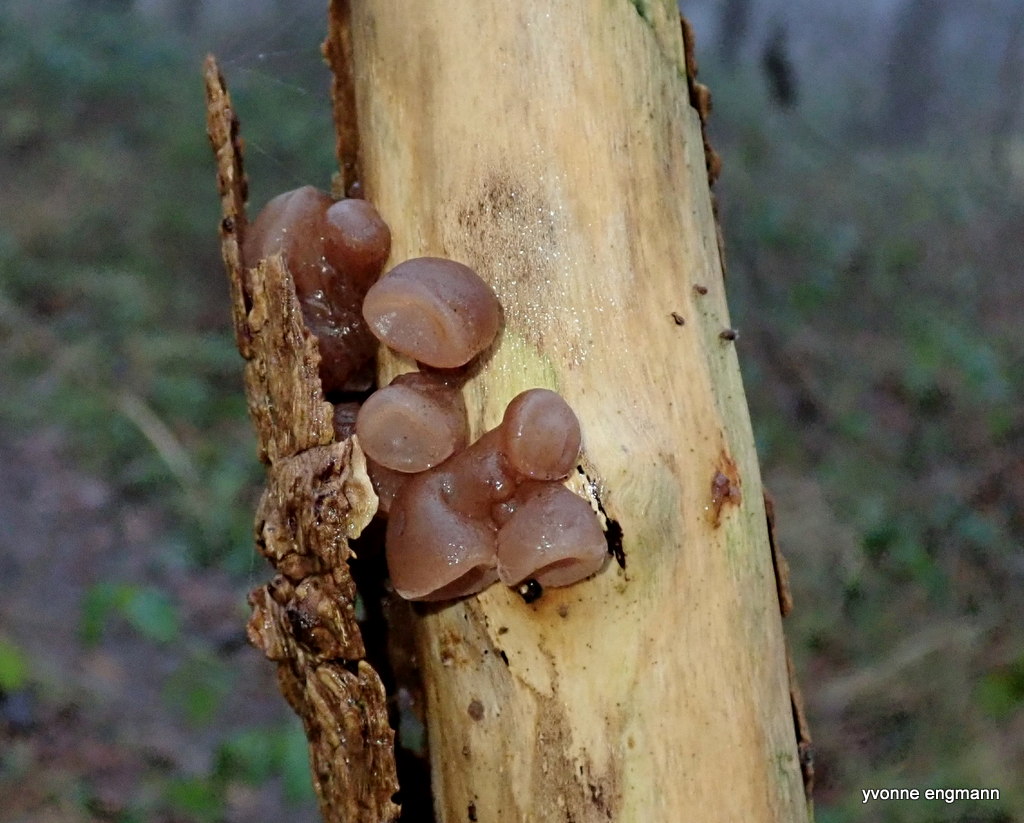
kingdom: Fungi
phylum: Basidiomycota
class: Agaricomycetes
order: Auriculariales
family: Auriculariaceae
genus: Auricularia
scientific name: Auricularia auricula-judae
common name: almindelig judasøre
